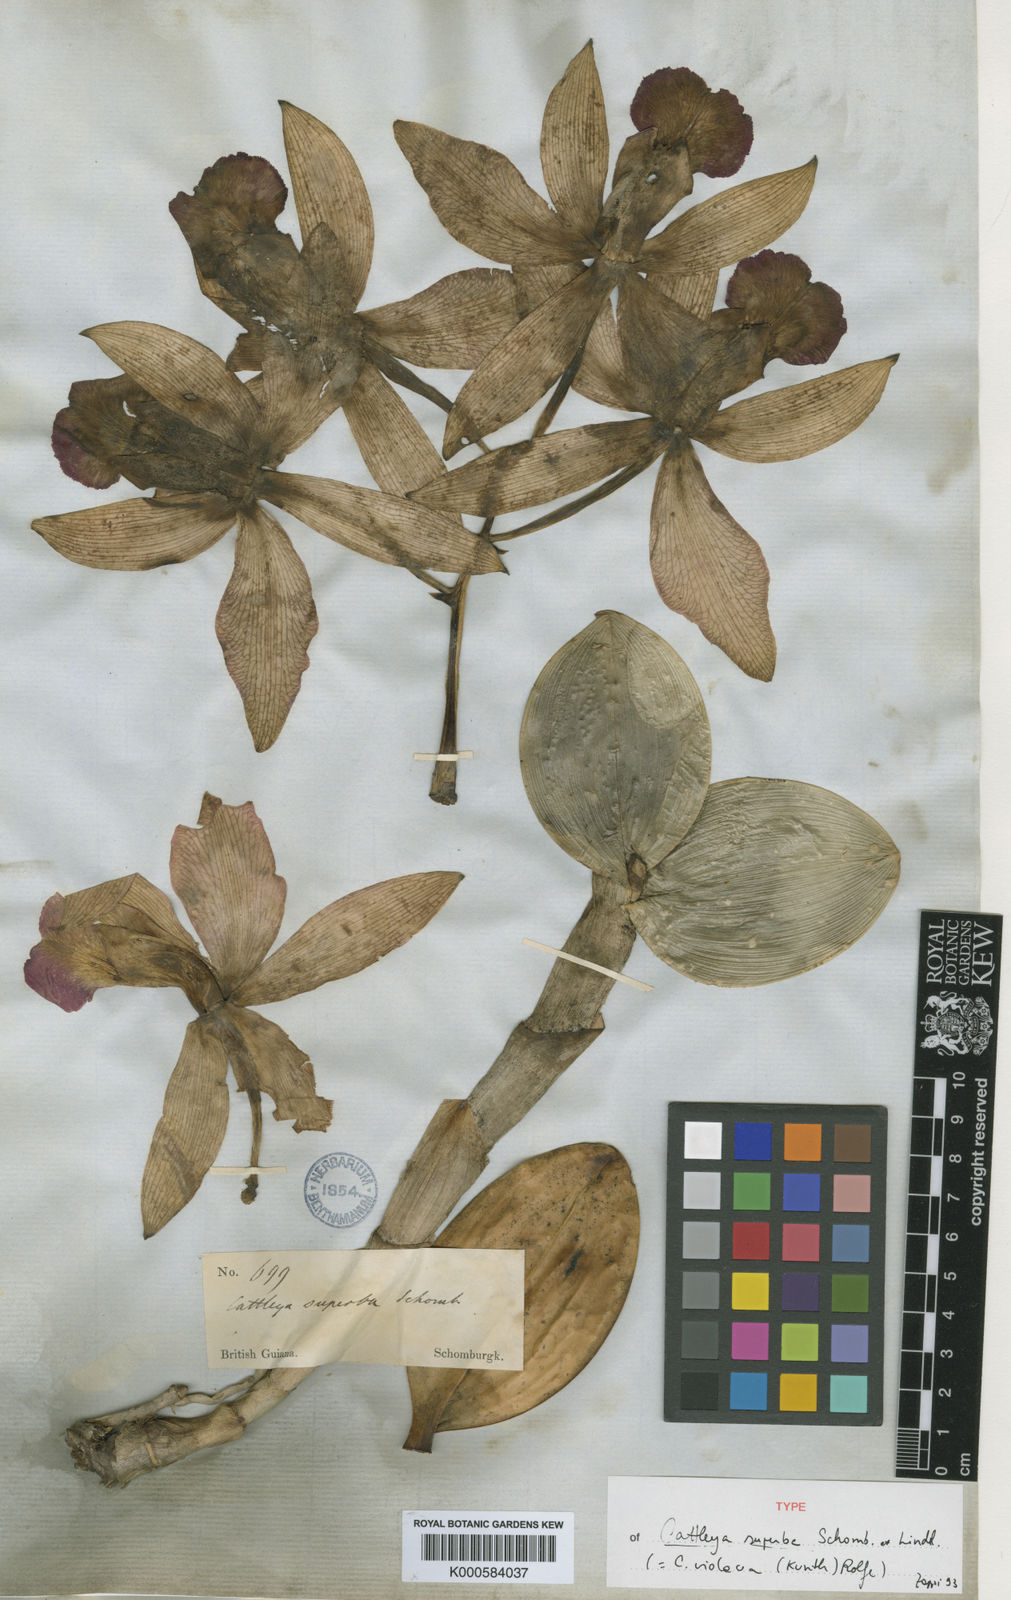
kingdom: Plantae
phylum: Tracheophyta
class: Liliopsida
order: Asparagales
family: Orchidaceae
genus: Cattleya
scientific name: Cattleya violacea
